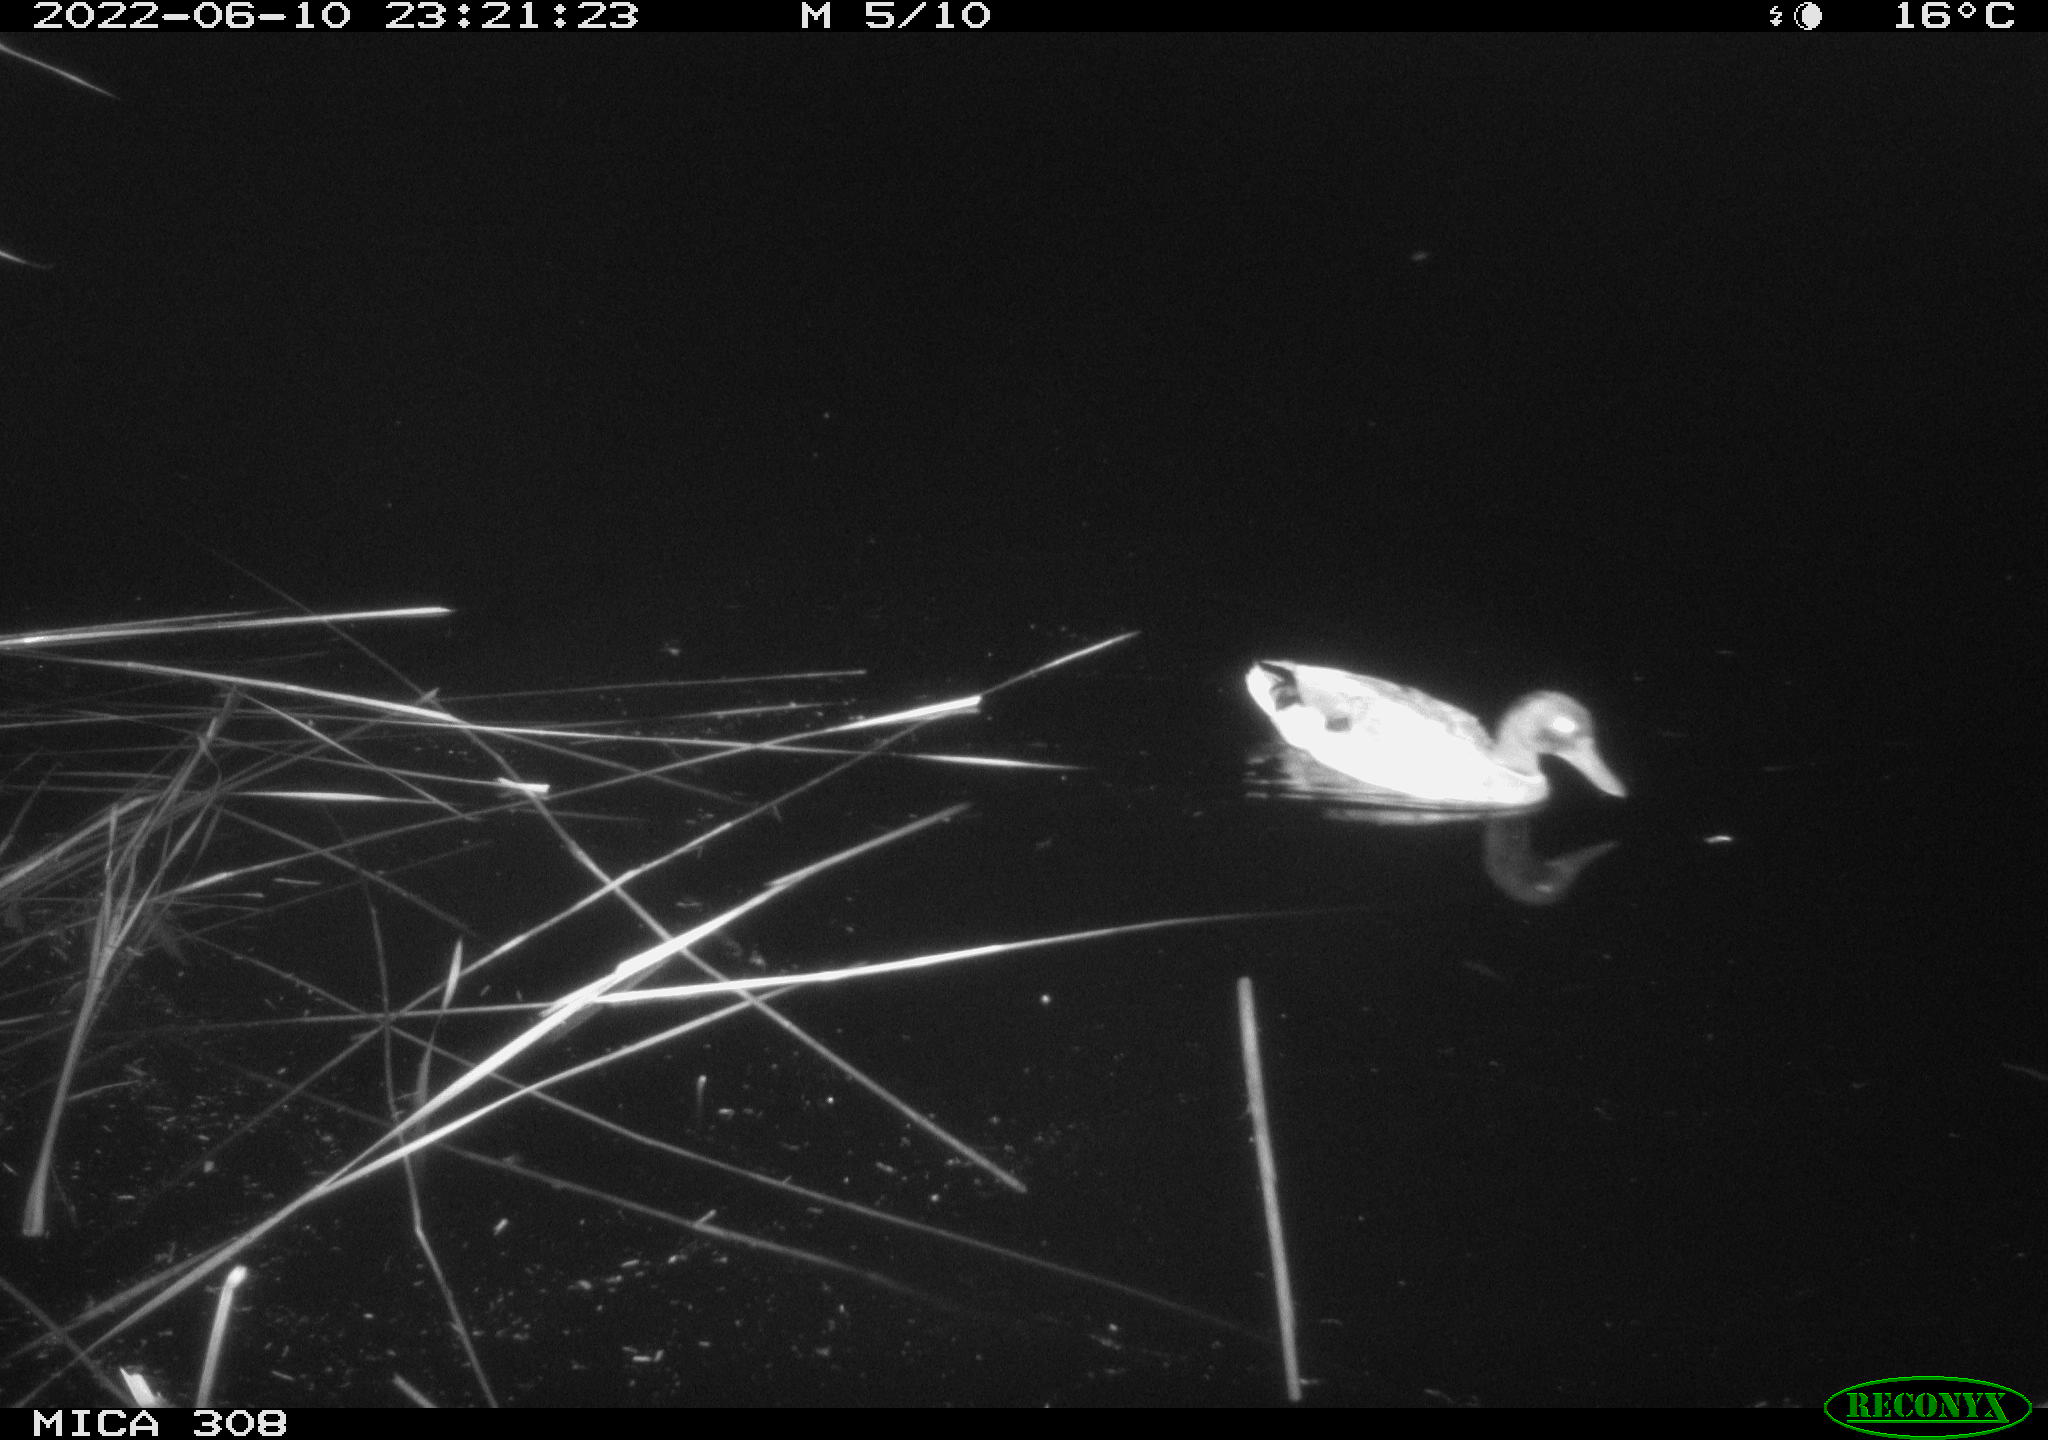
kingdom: Animalia
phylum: Chordata
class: Aves
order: Anseriformes
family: Anatidae
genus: Anas
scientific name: Anas platyrhynchos
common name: Mallard
